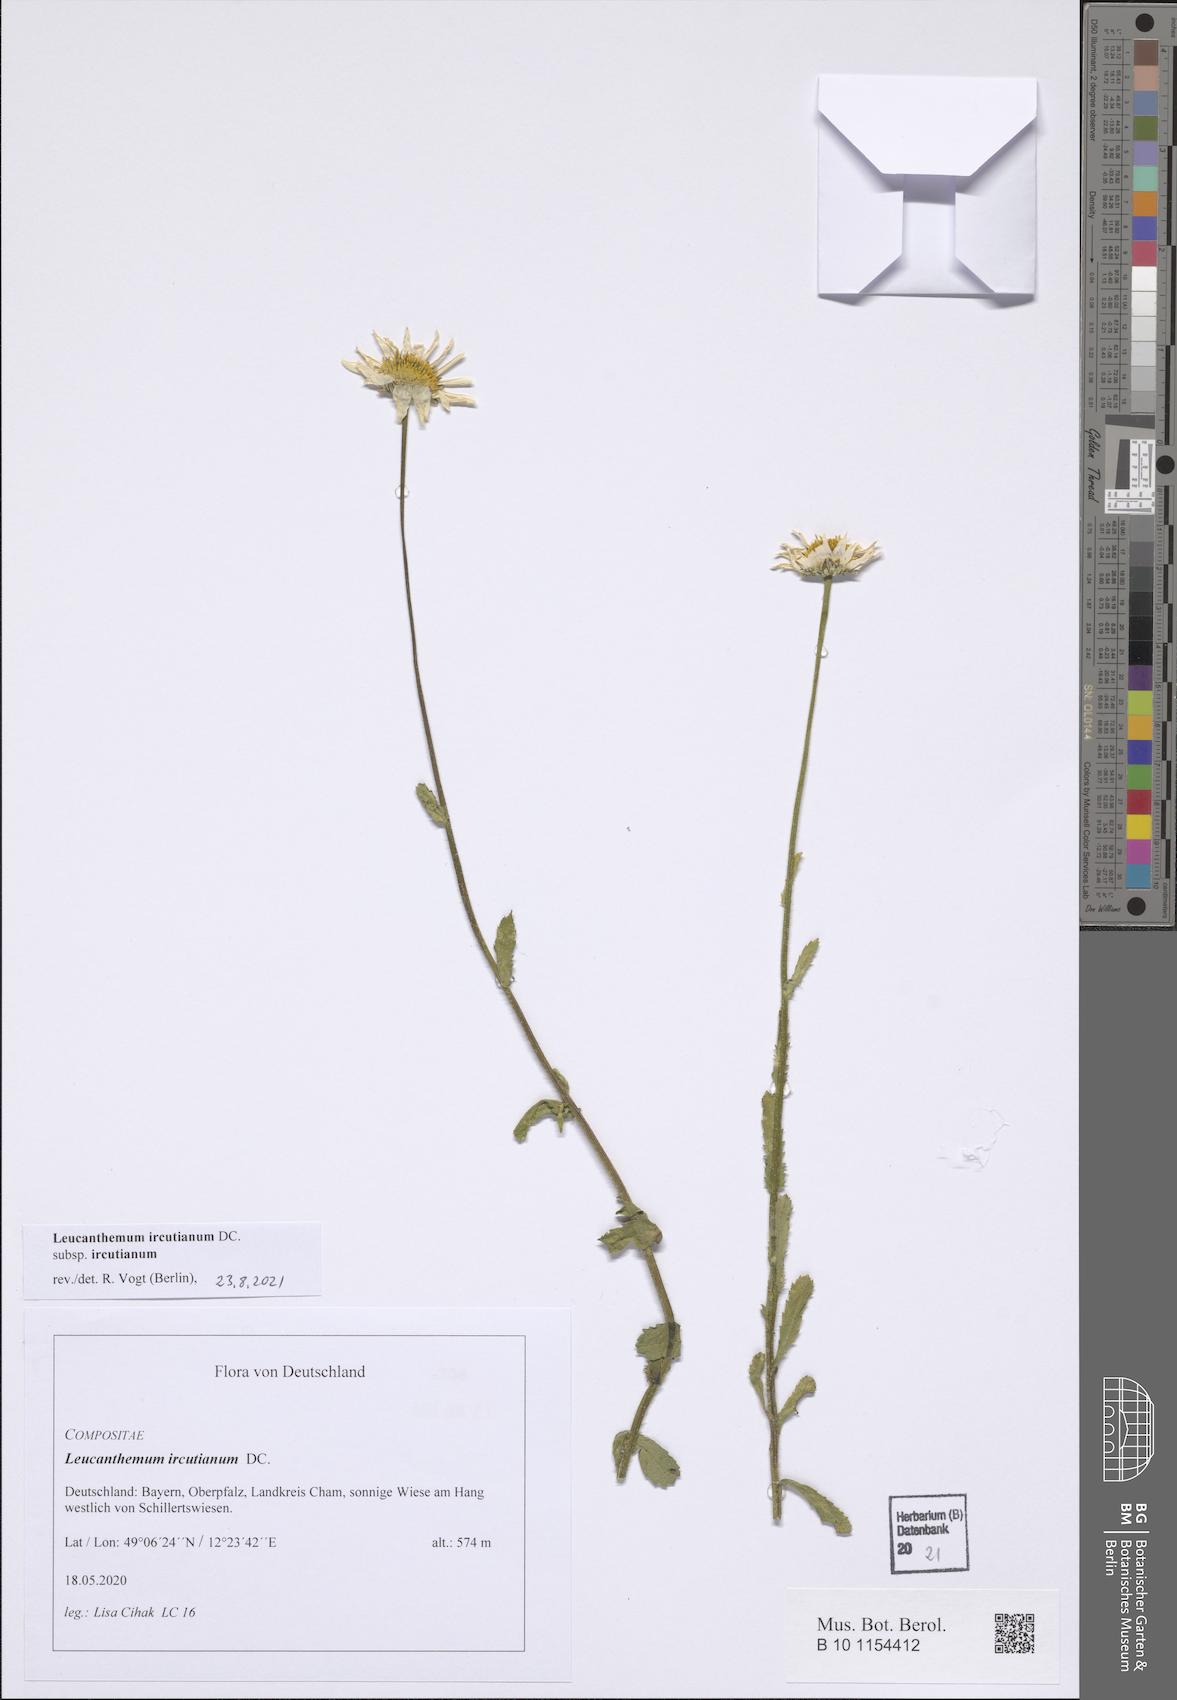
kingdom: Plantae
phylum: Tracheophyta
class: Magnoliopsida
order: Asterales
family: Asteraceae
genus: Leucanthemum
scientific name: Leucanthemum ircutianum
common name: Daisy
